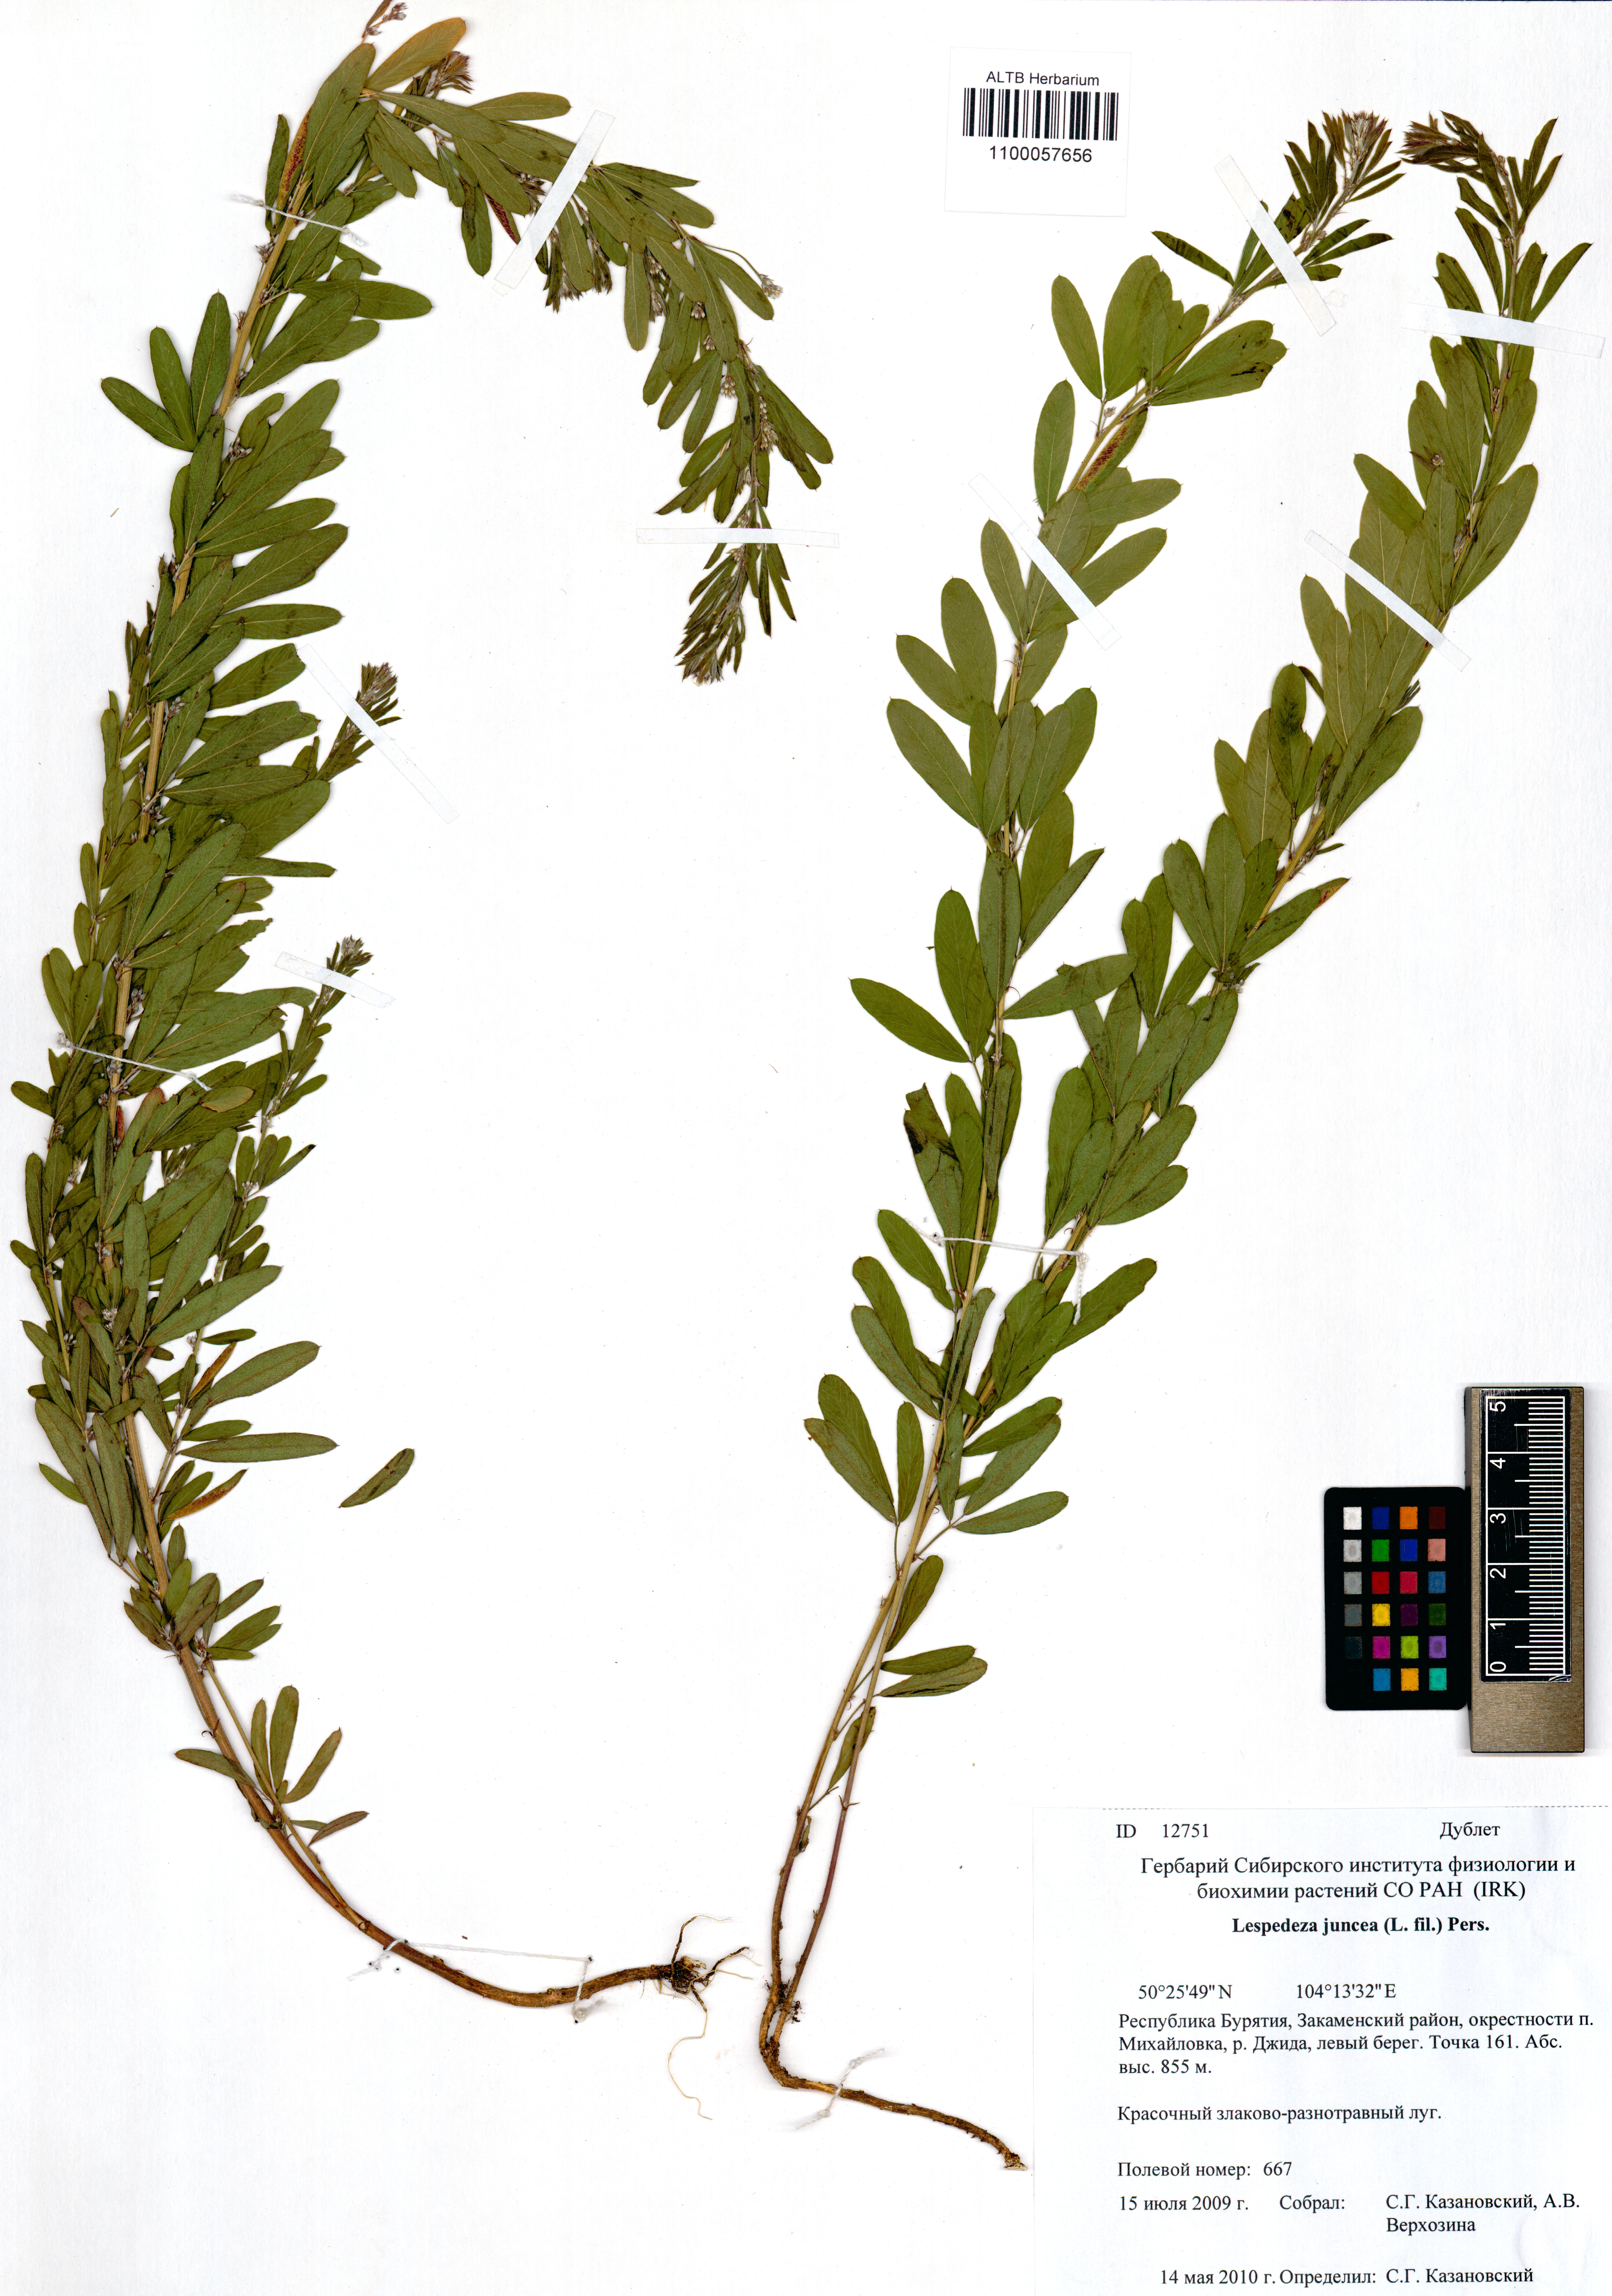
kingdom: Plantae
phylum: Tracheophyta
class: Magnoliopsida
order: Fabales
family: Fabaceae
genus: Lespedeza
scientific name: Lespedeza juncea
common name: Siberian lespedeza
